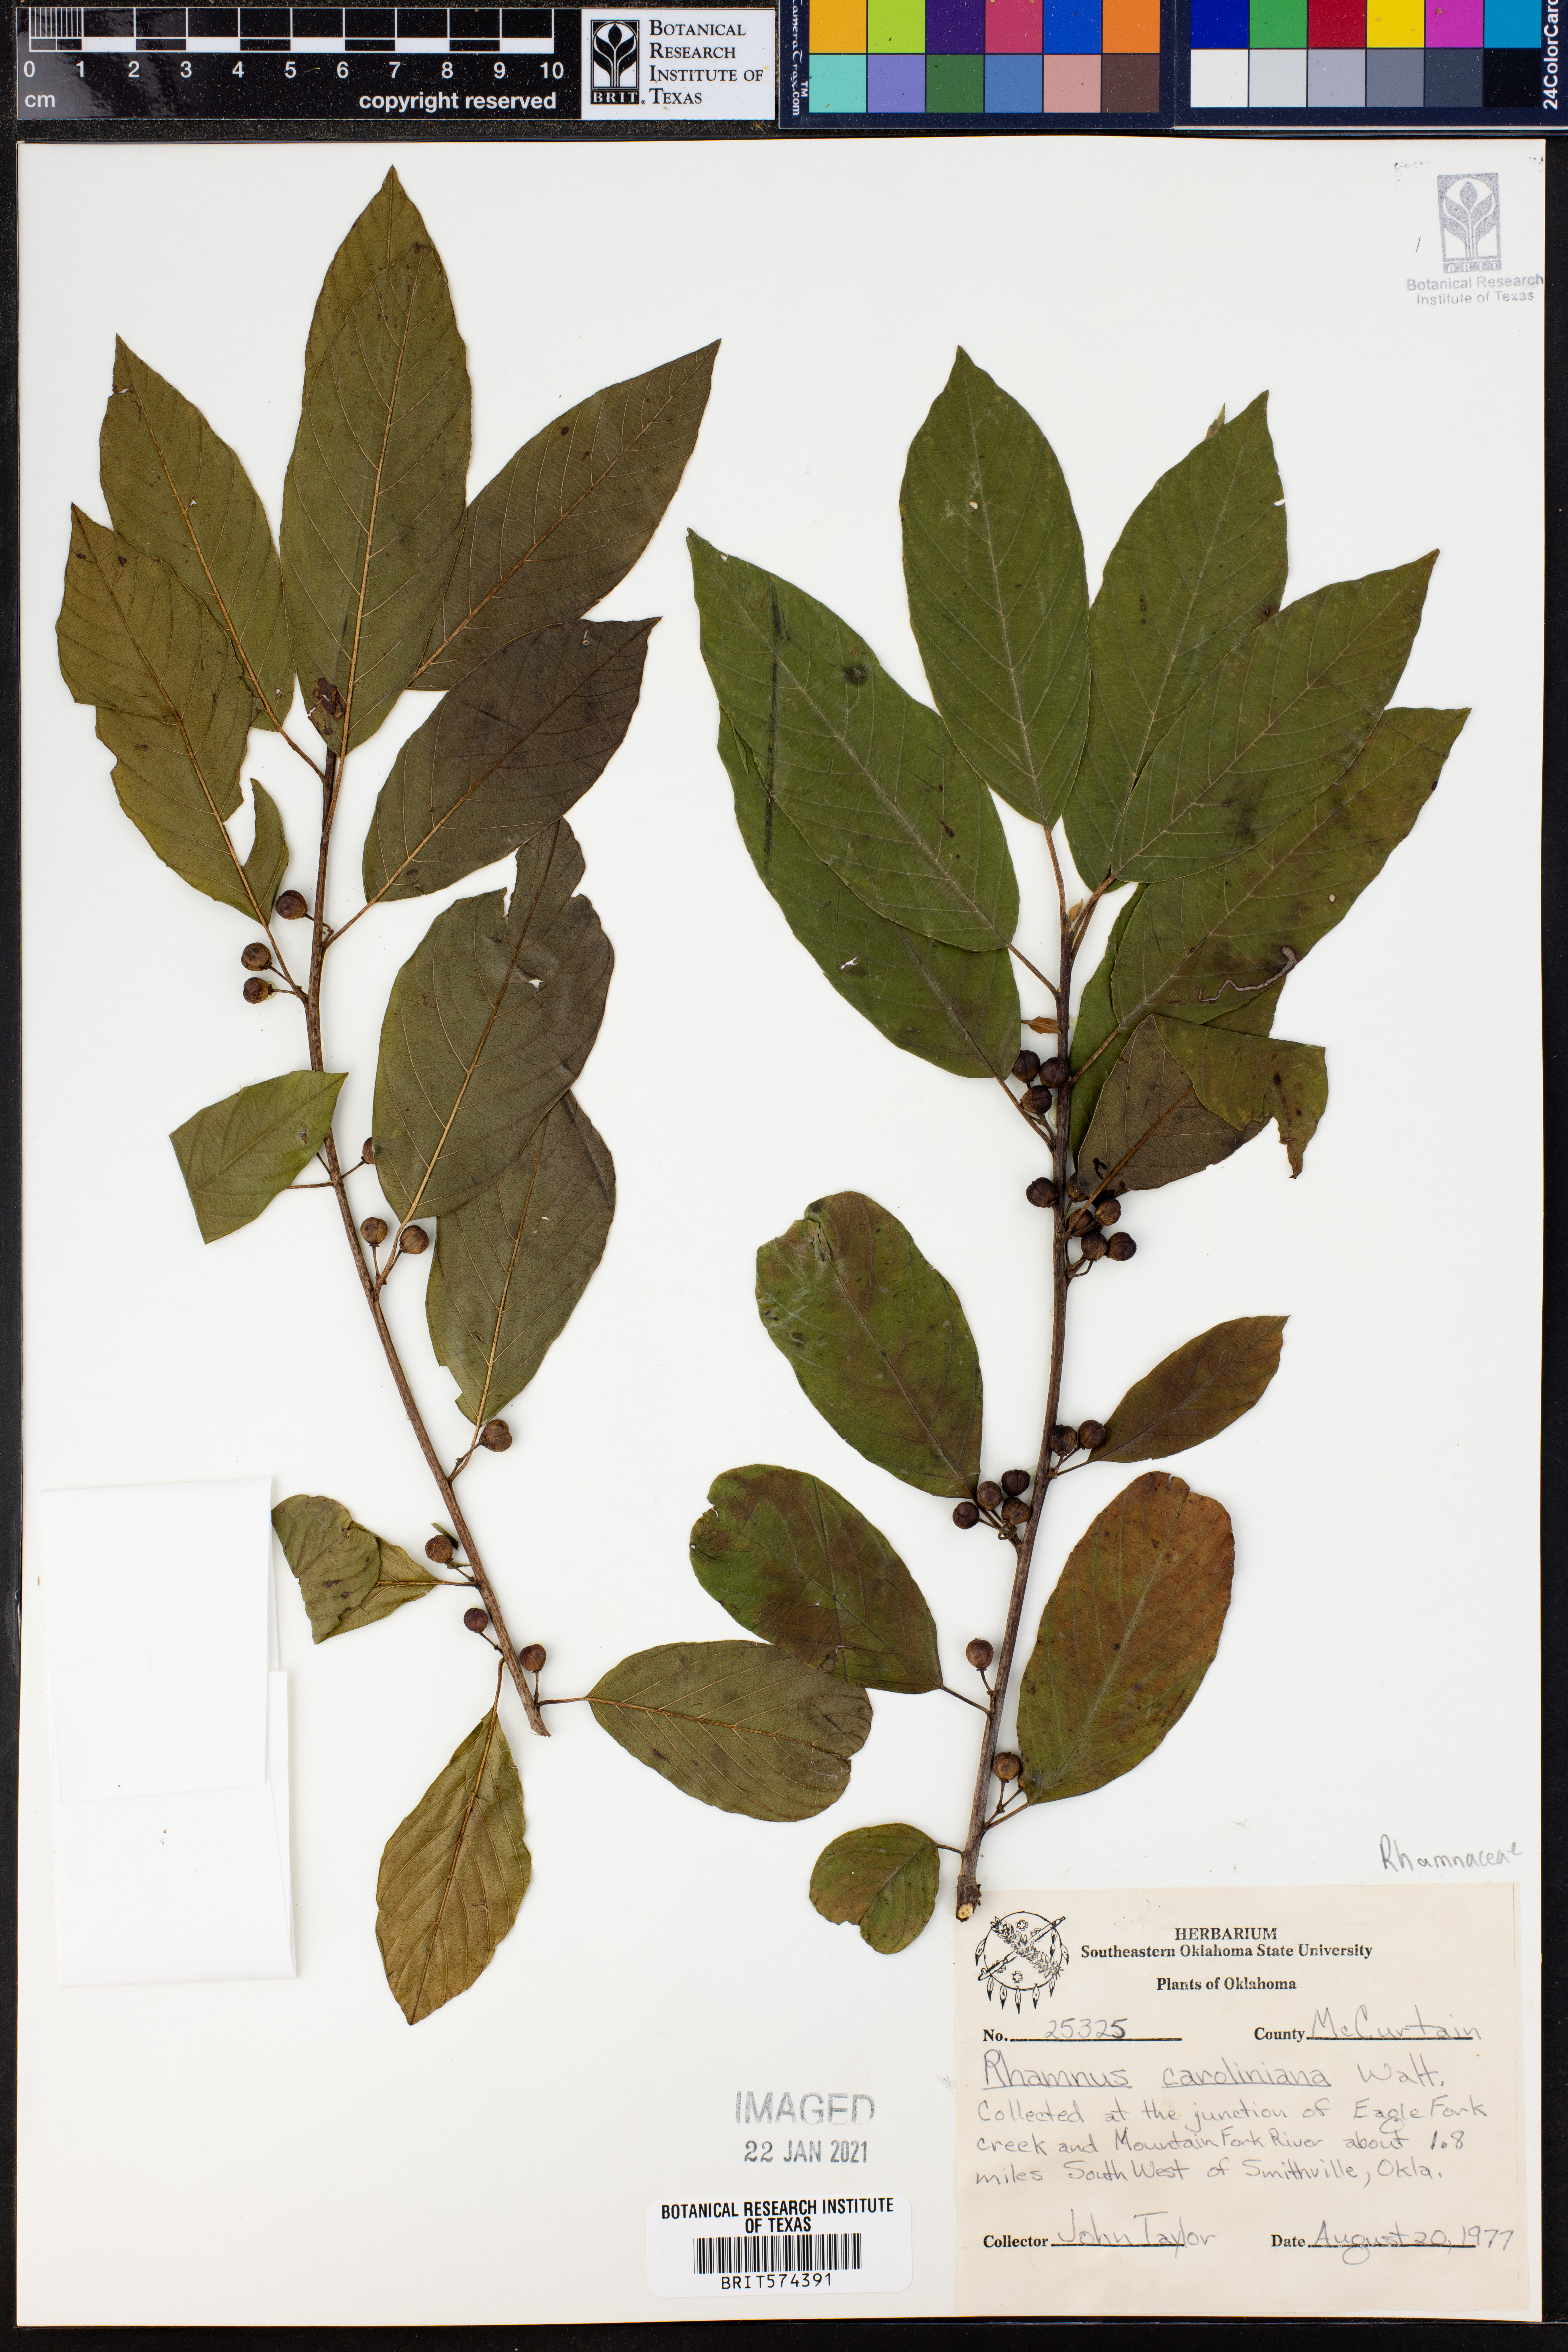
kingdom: Plantae
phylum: Tracheophyta
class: Magnoliopsida
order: Rosales
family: Rhamnaceae
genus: Frangula
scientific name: Frangula caroliniana
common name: Carolina buckthorn
